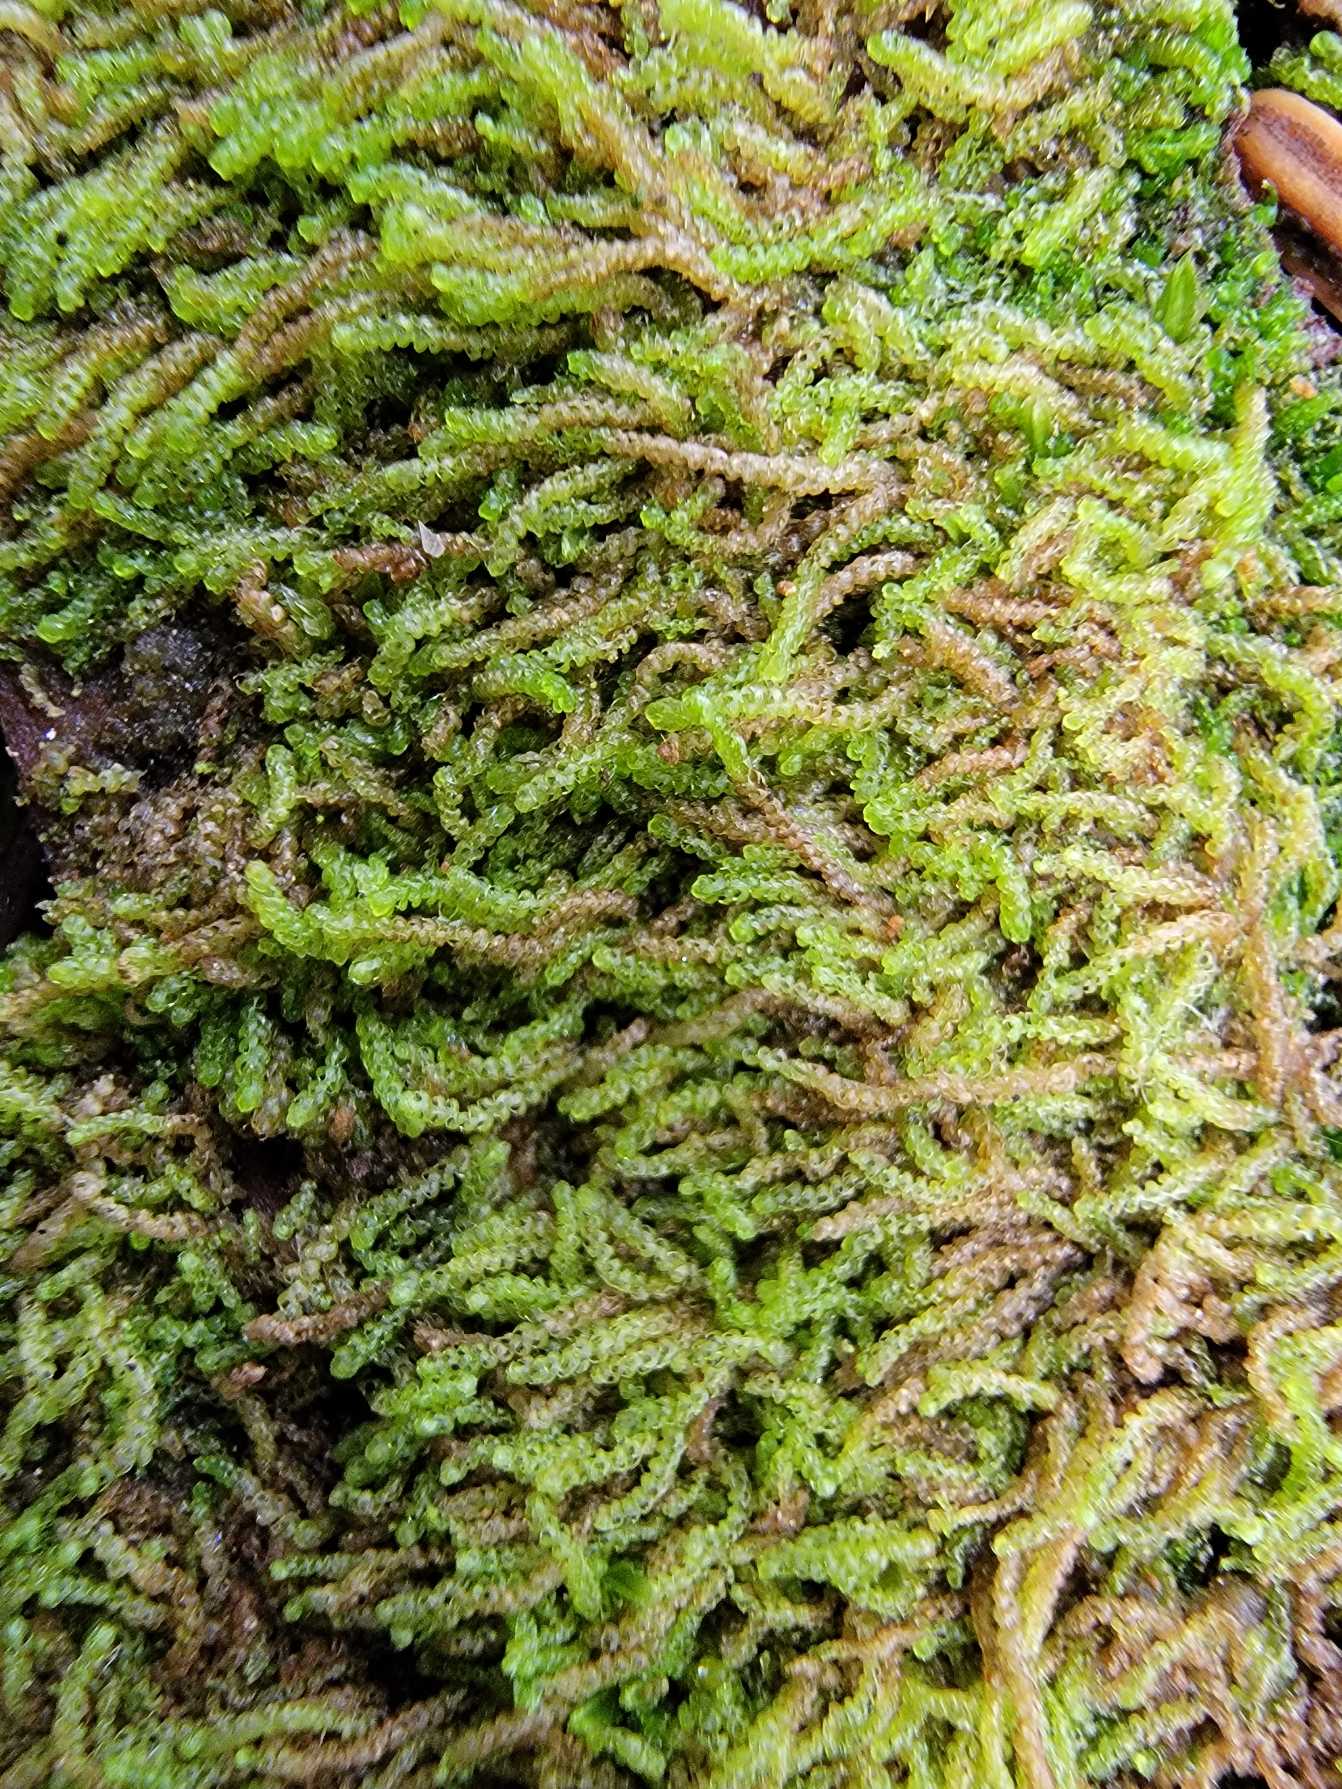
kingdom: Plantae
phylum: Marchantiophyta
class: Jungermanniopsida
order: Jungermanniales
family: Cephaloziaceae
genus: Nowellia
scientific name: Nowellia curvifolia
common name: Krumbladet stødmos
